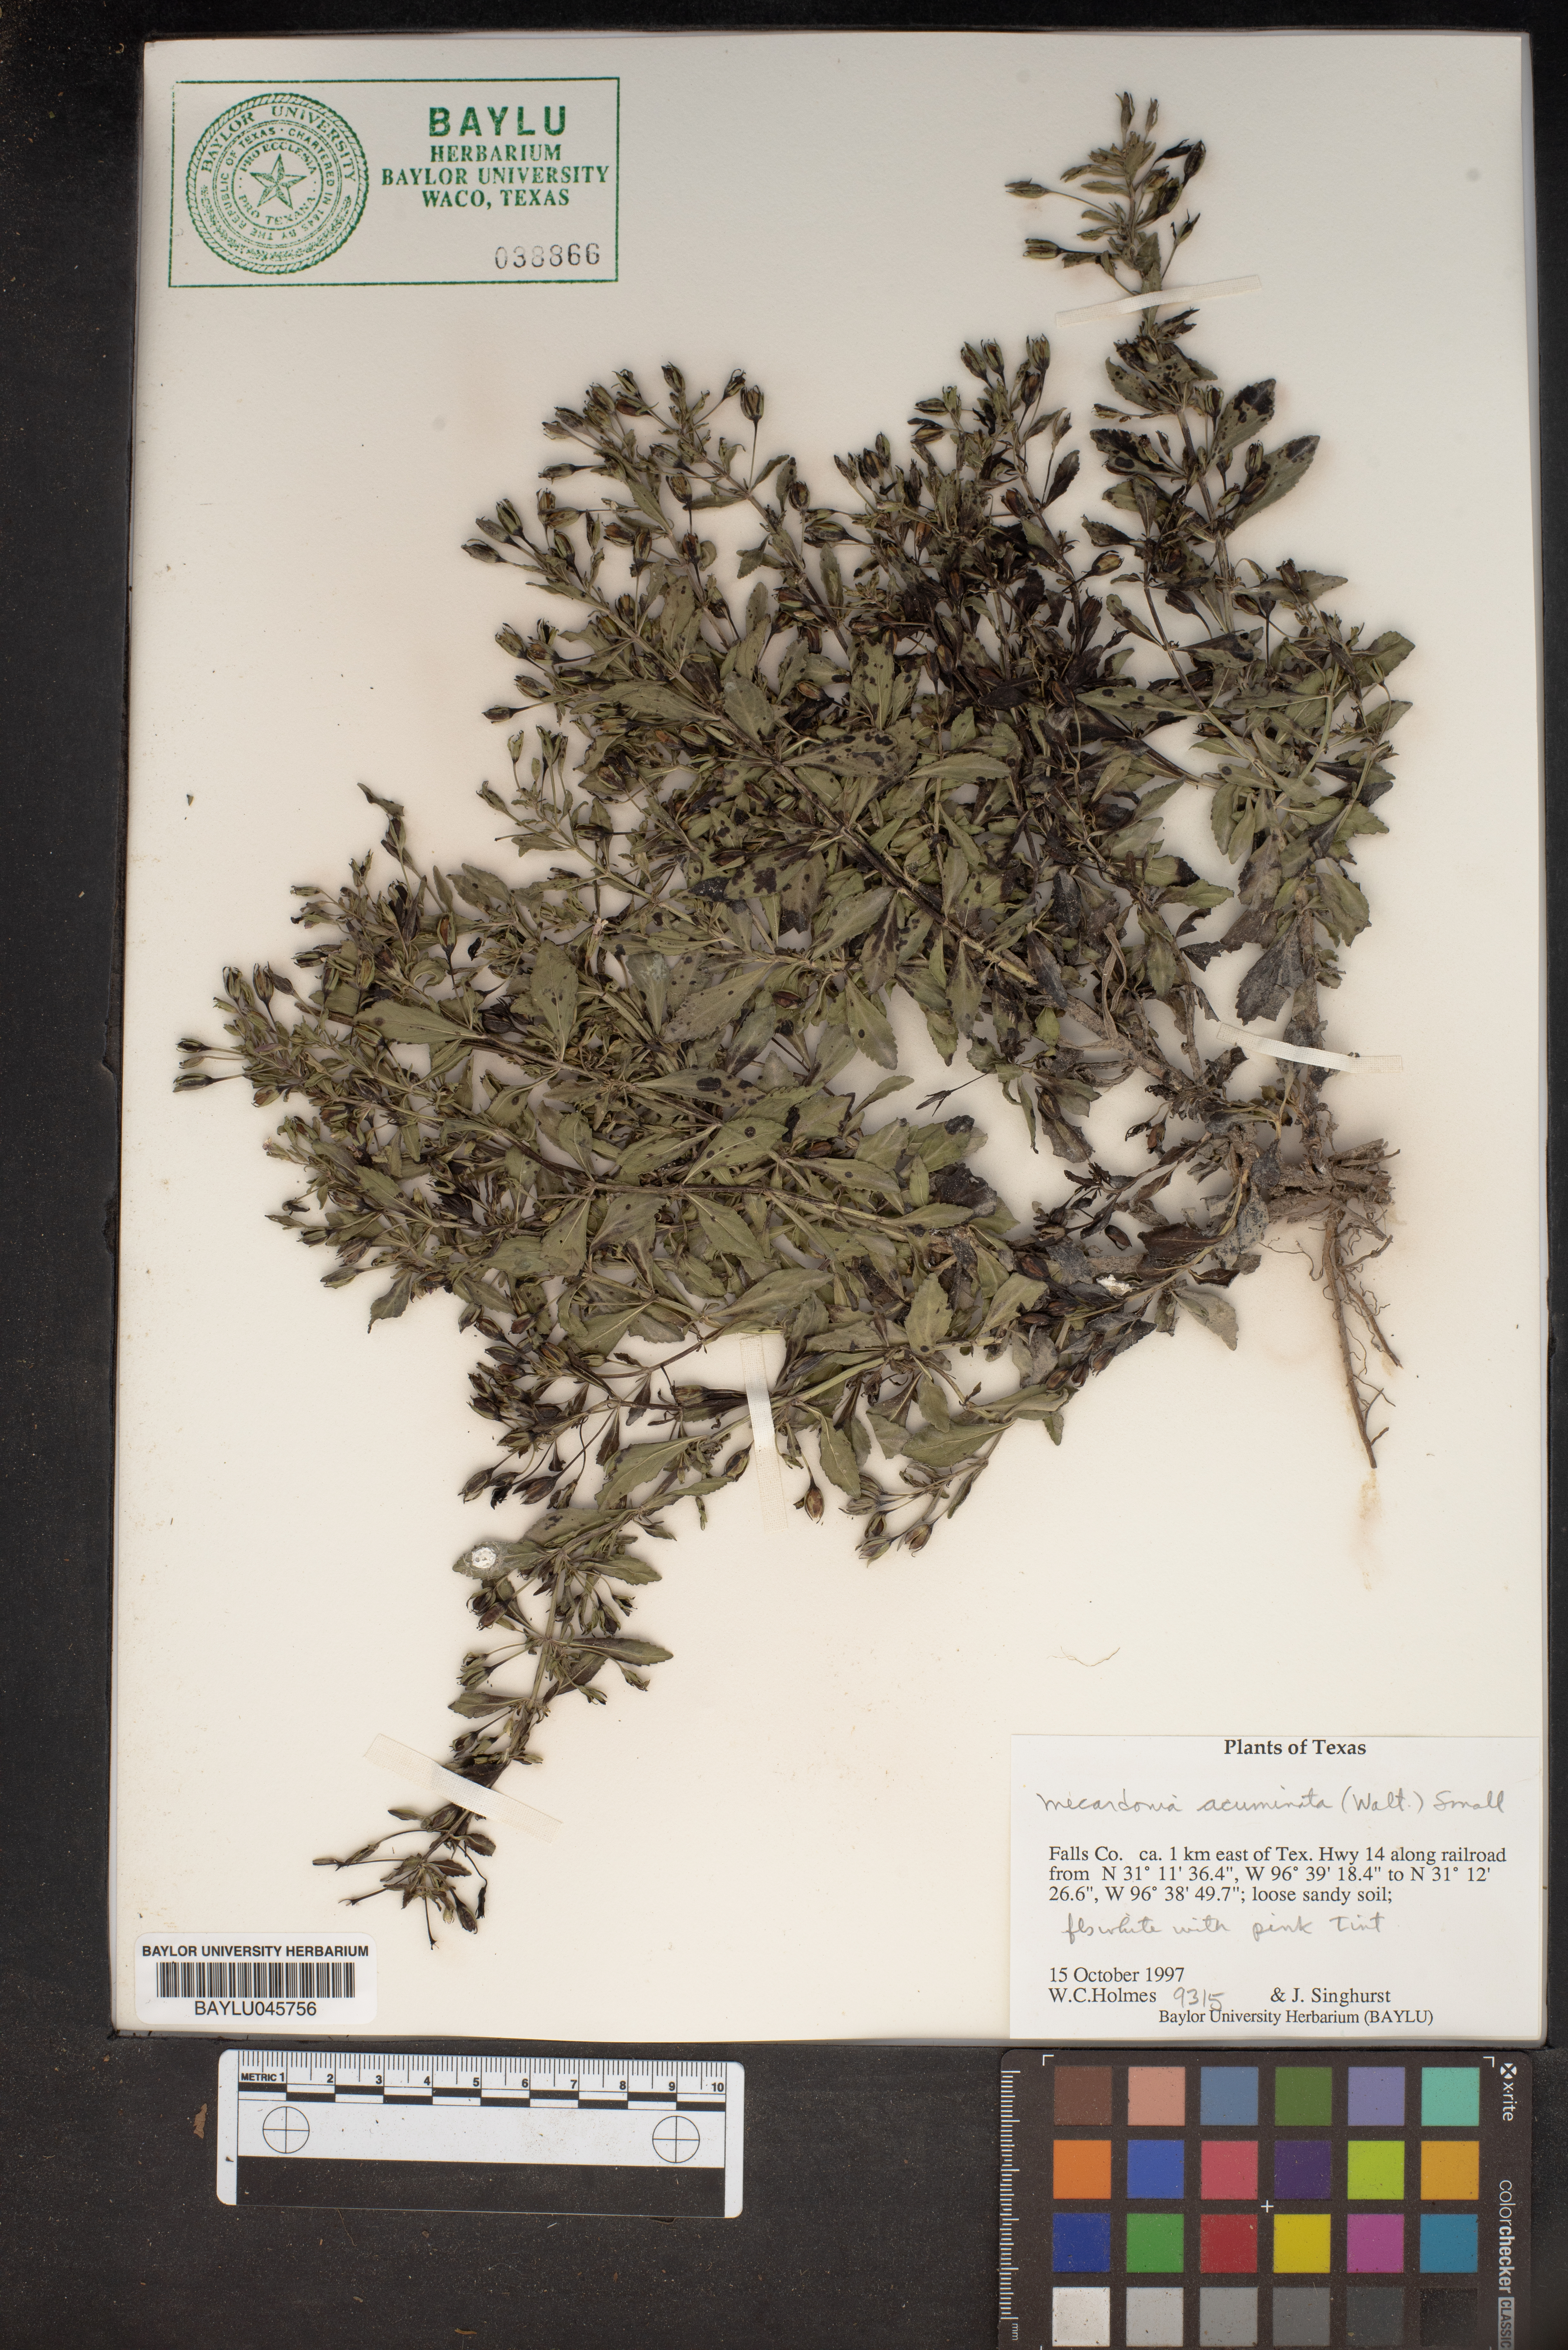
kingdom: Plantae
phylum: Tracheophyta
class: Magnoliopsida
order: Lamiales
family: Plantaginaceae
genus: Mecardonia
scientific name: Mecardonia acuminata
